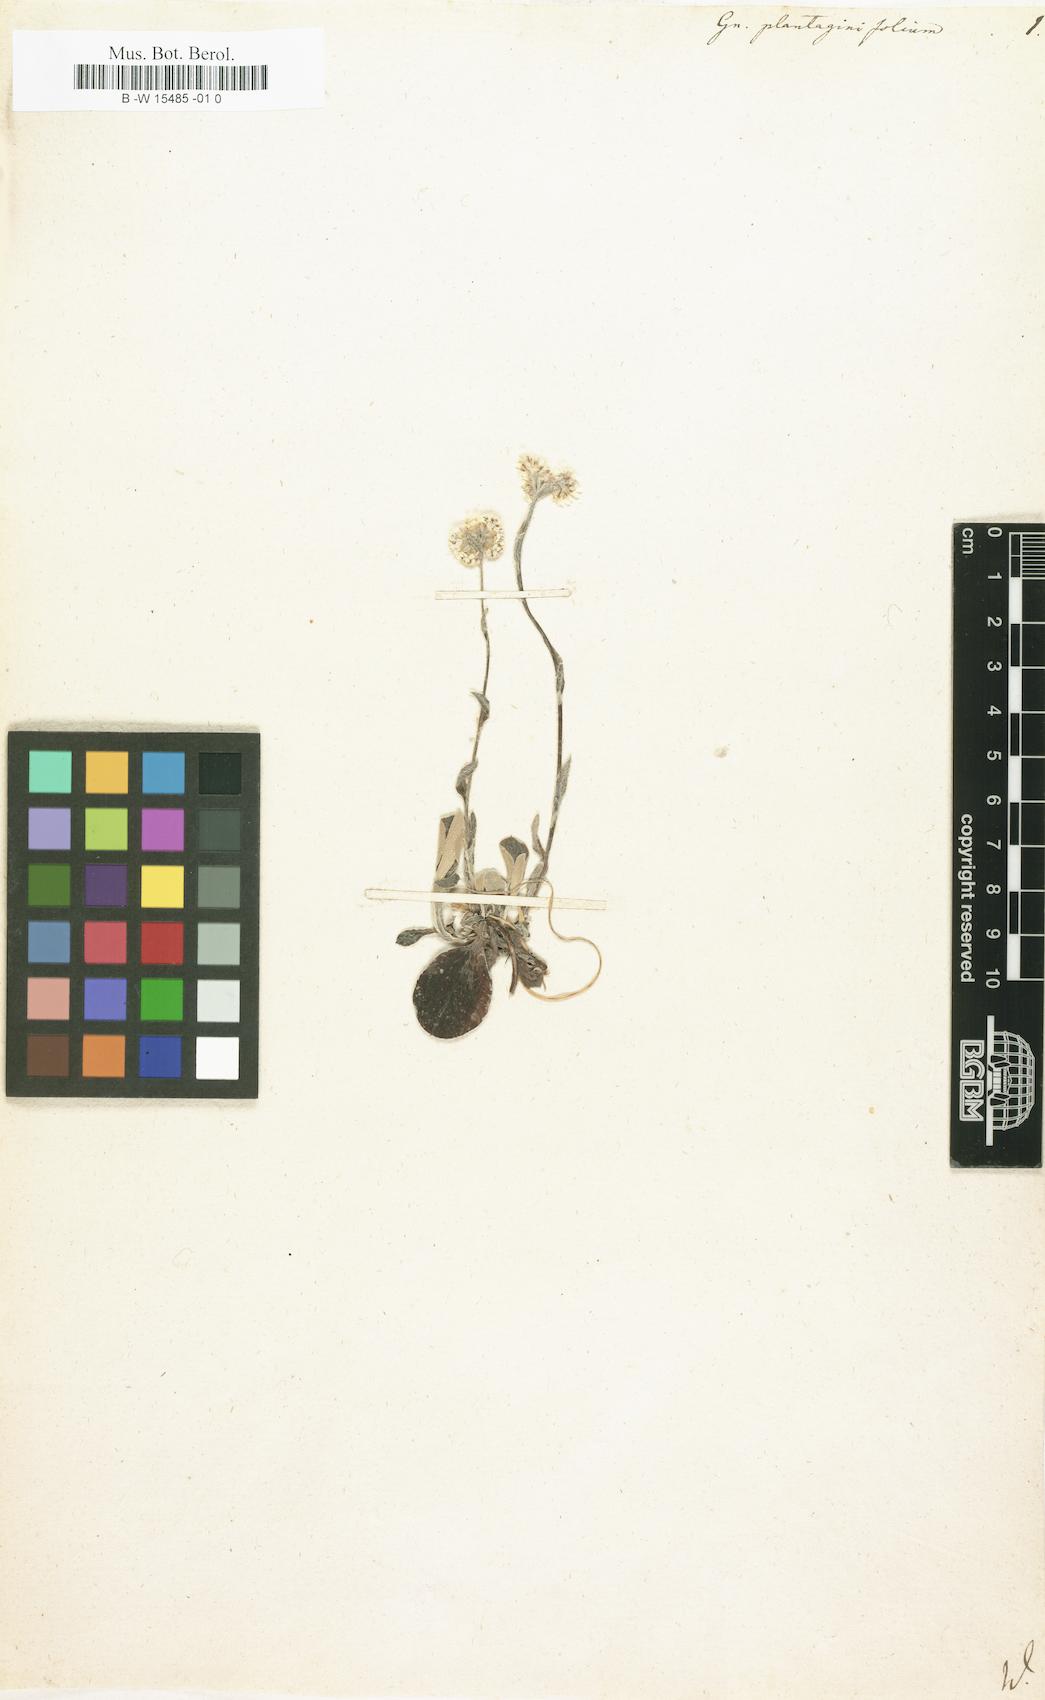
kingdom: Plantae
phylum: Tracheophyta
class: Magnoliopsida
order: Asterales
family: Asteraceae
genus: Antennaria
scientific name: Antennaria plantaginifolia
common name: Plantain-leaved pussytoes
